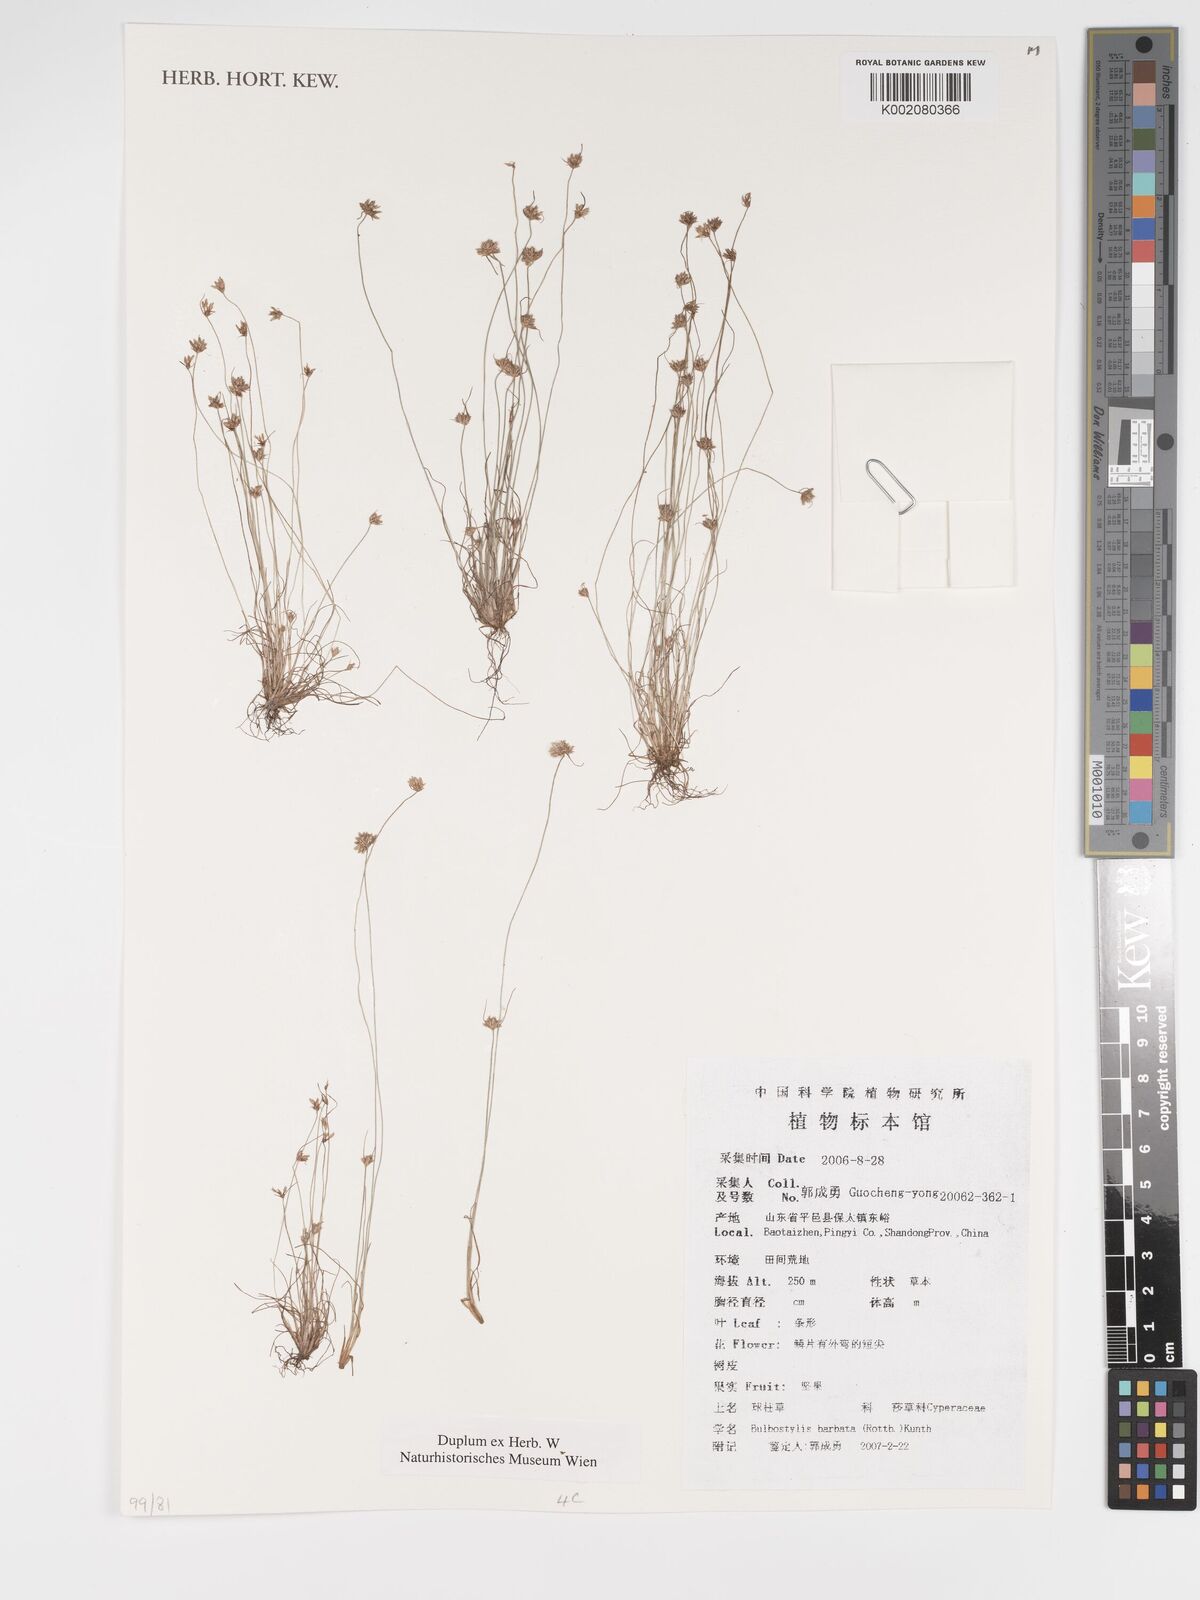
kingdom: Plantae
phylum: Tracheophyta
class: Liliopsida
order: Poales
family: Cyperaceae
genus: Bulbostylis
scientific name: Bulbostylis barbata
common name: Watergrass
